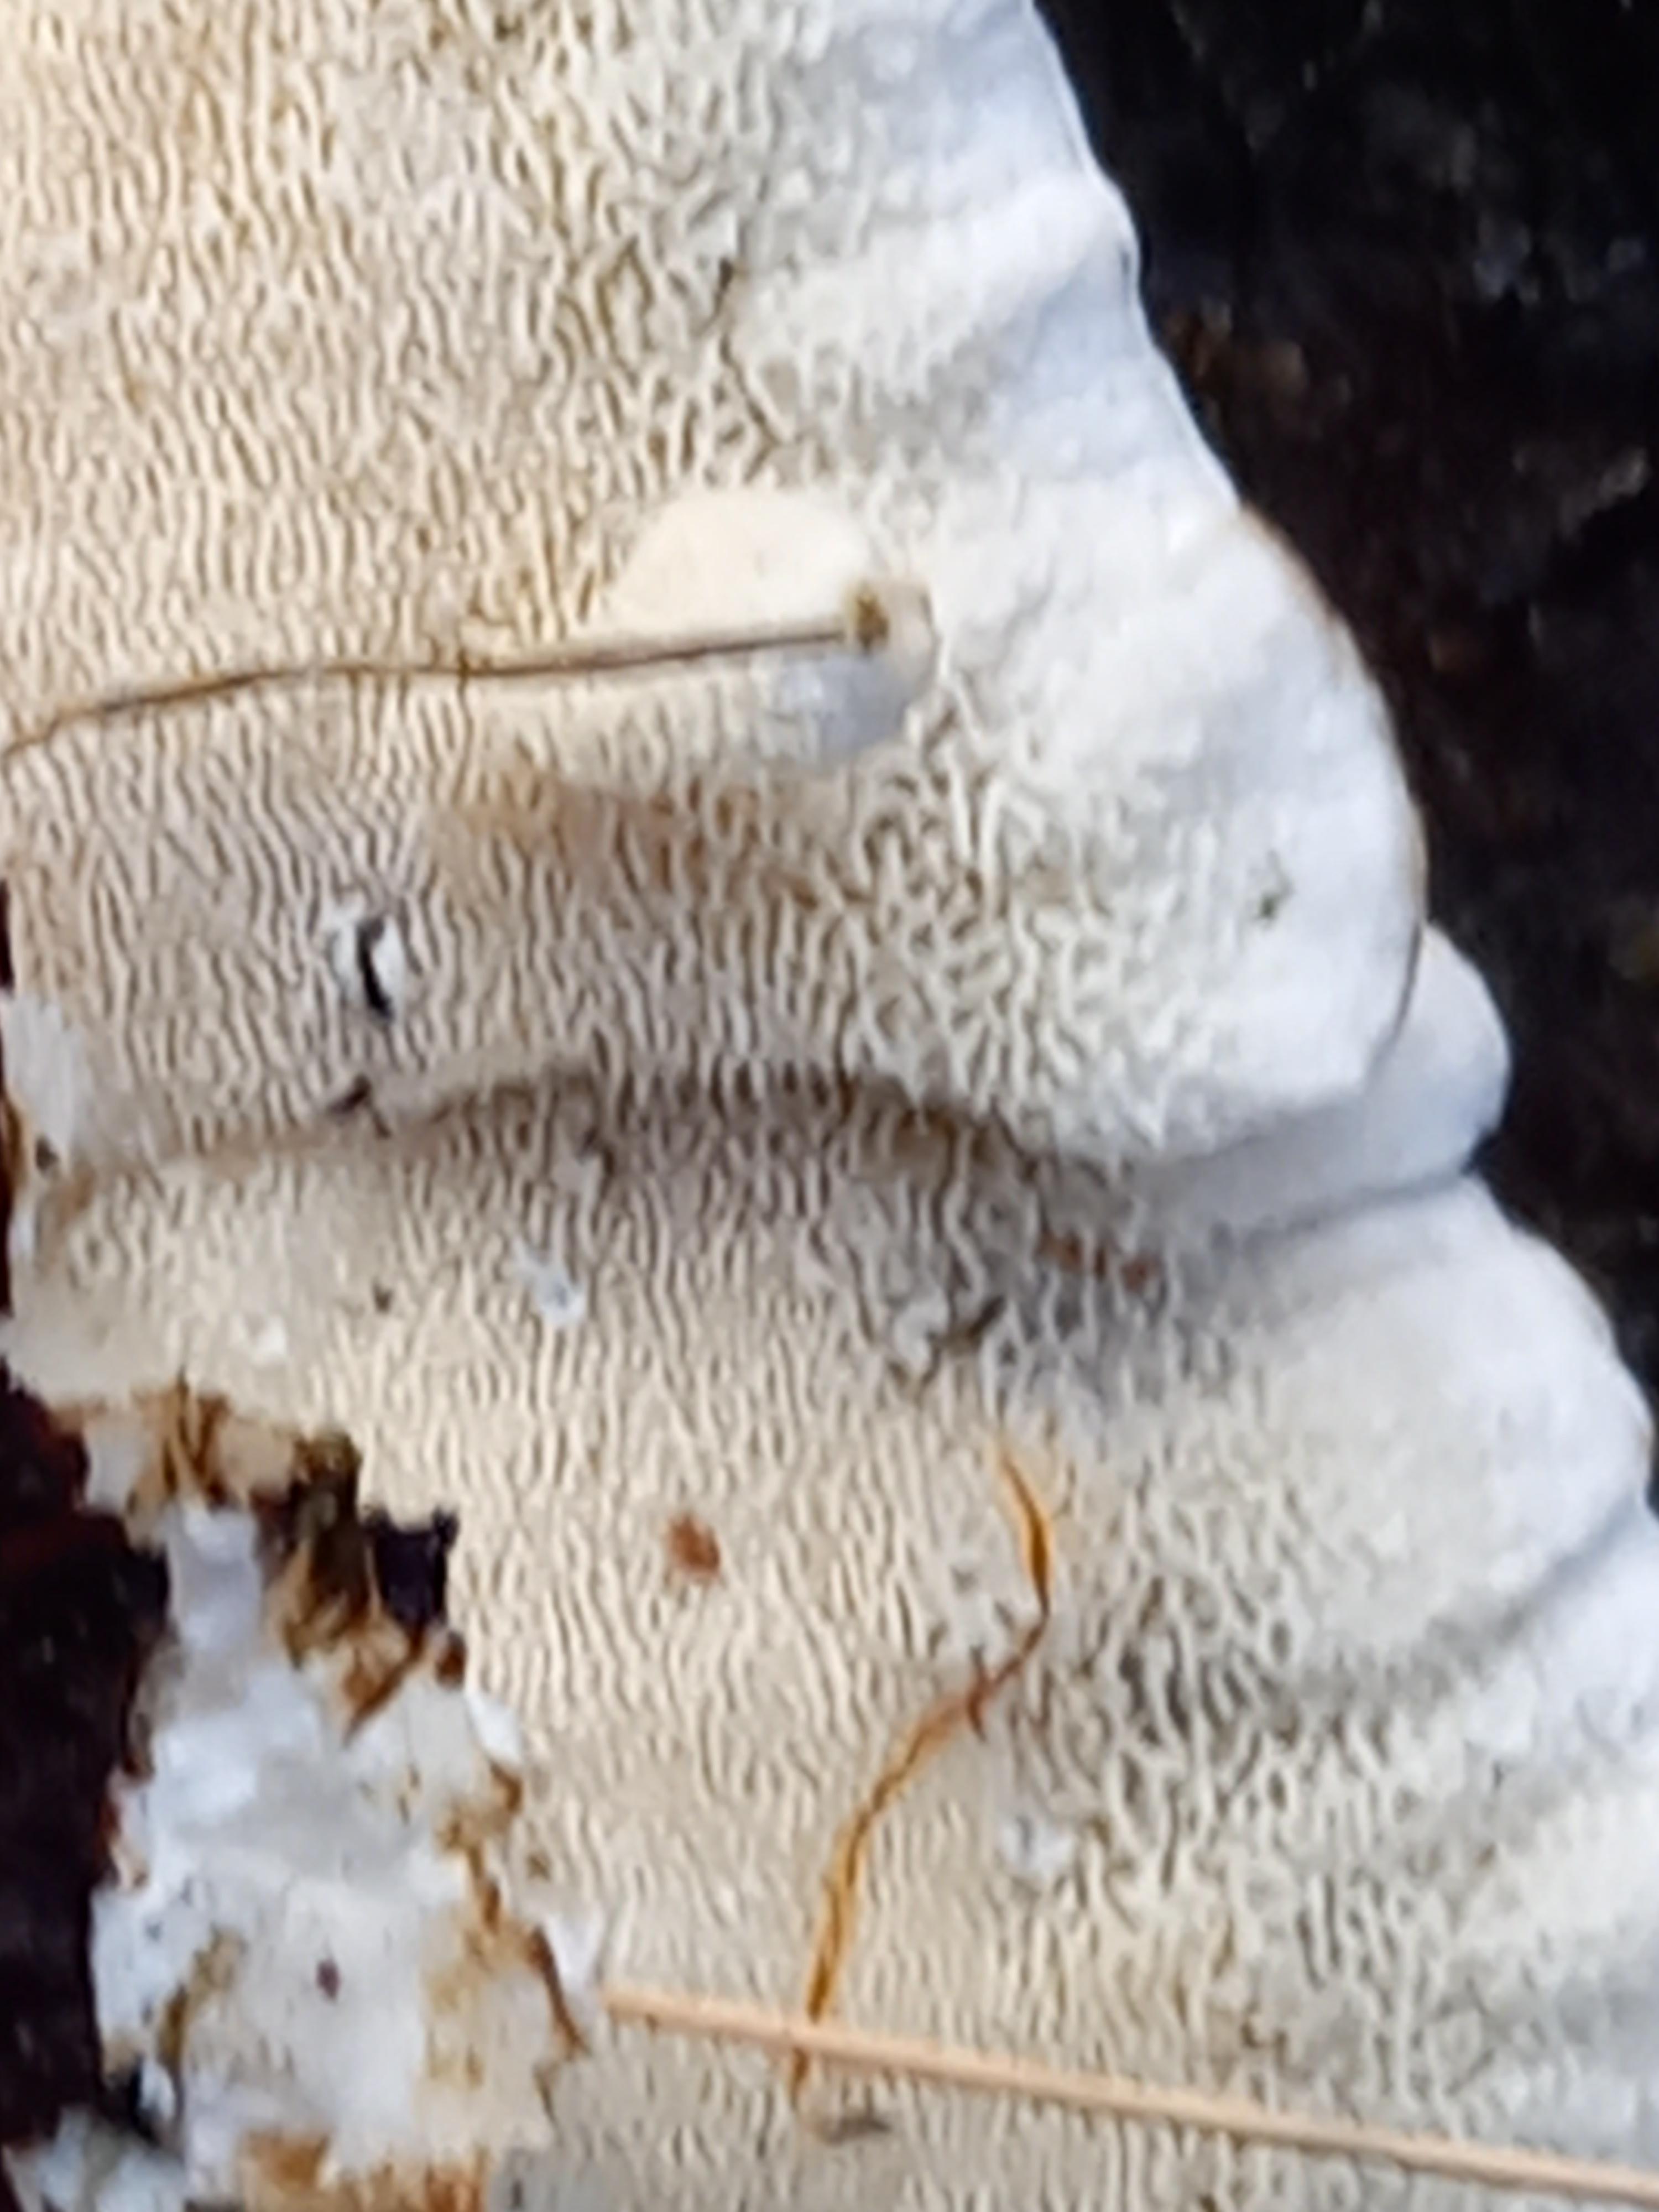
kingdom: Fungi
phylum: Basidiomycota
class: Agaricomycetes
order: Polyporales
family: Polyporaceae
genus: Trametes
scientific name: Trametes ochracea
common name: bæltet læderporesvamp
